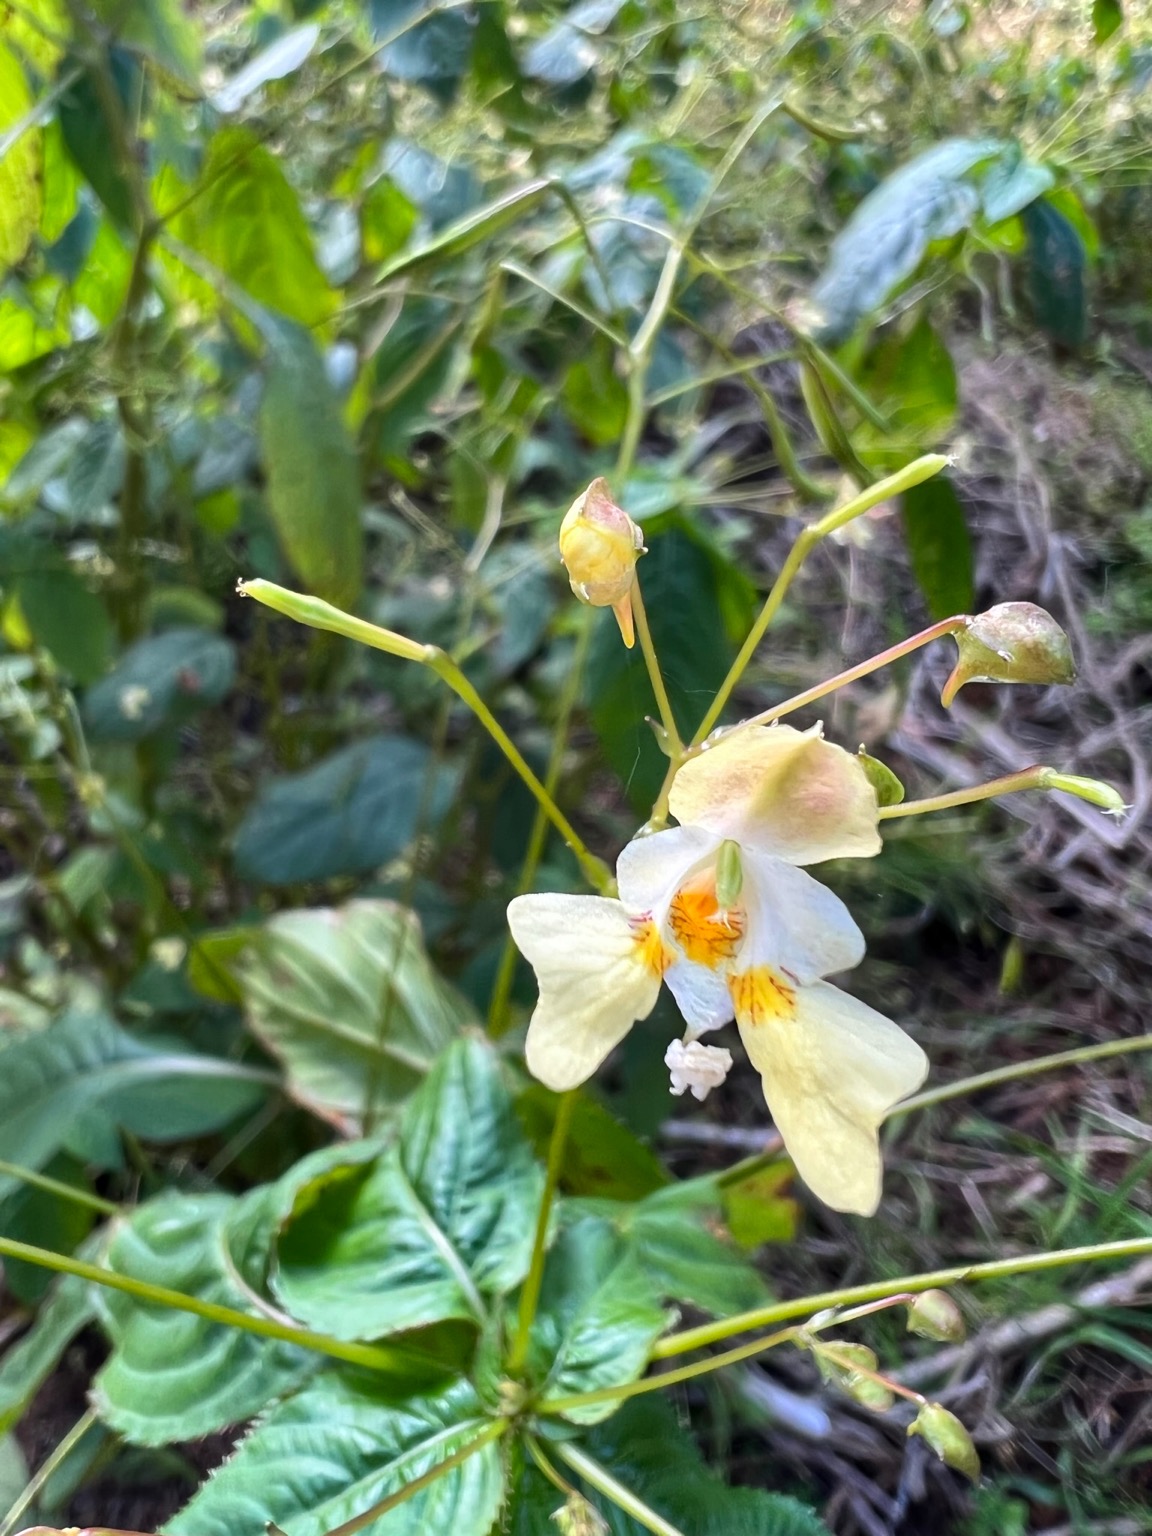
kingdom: Plantae
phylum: Tracheophyta
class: Magnoliopsida
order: Ericales
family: Balsaminaceae
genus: Impatiens
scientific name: Impatiens parviflora
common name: Småblomstret balsamin
